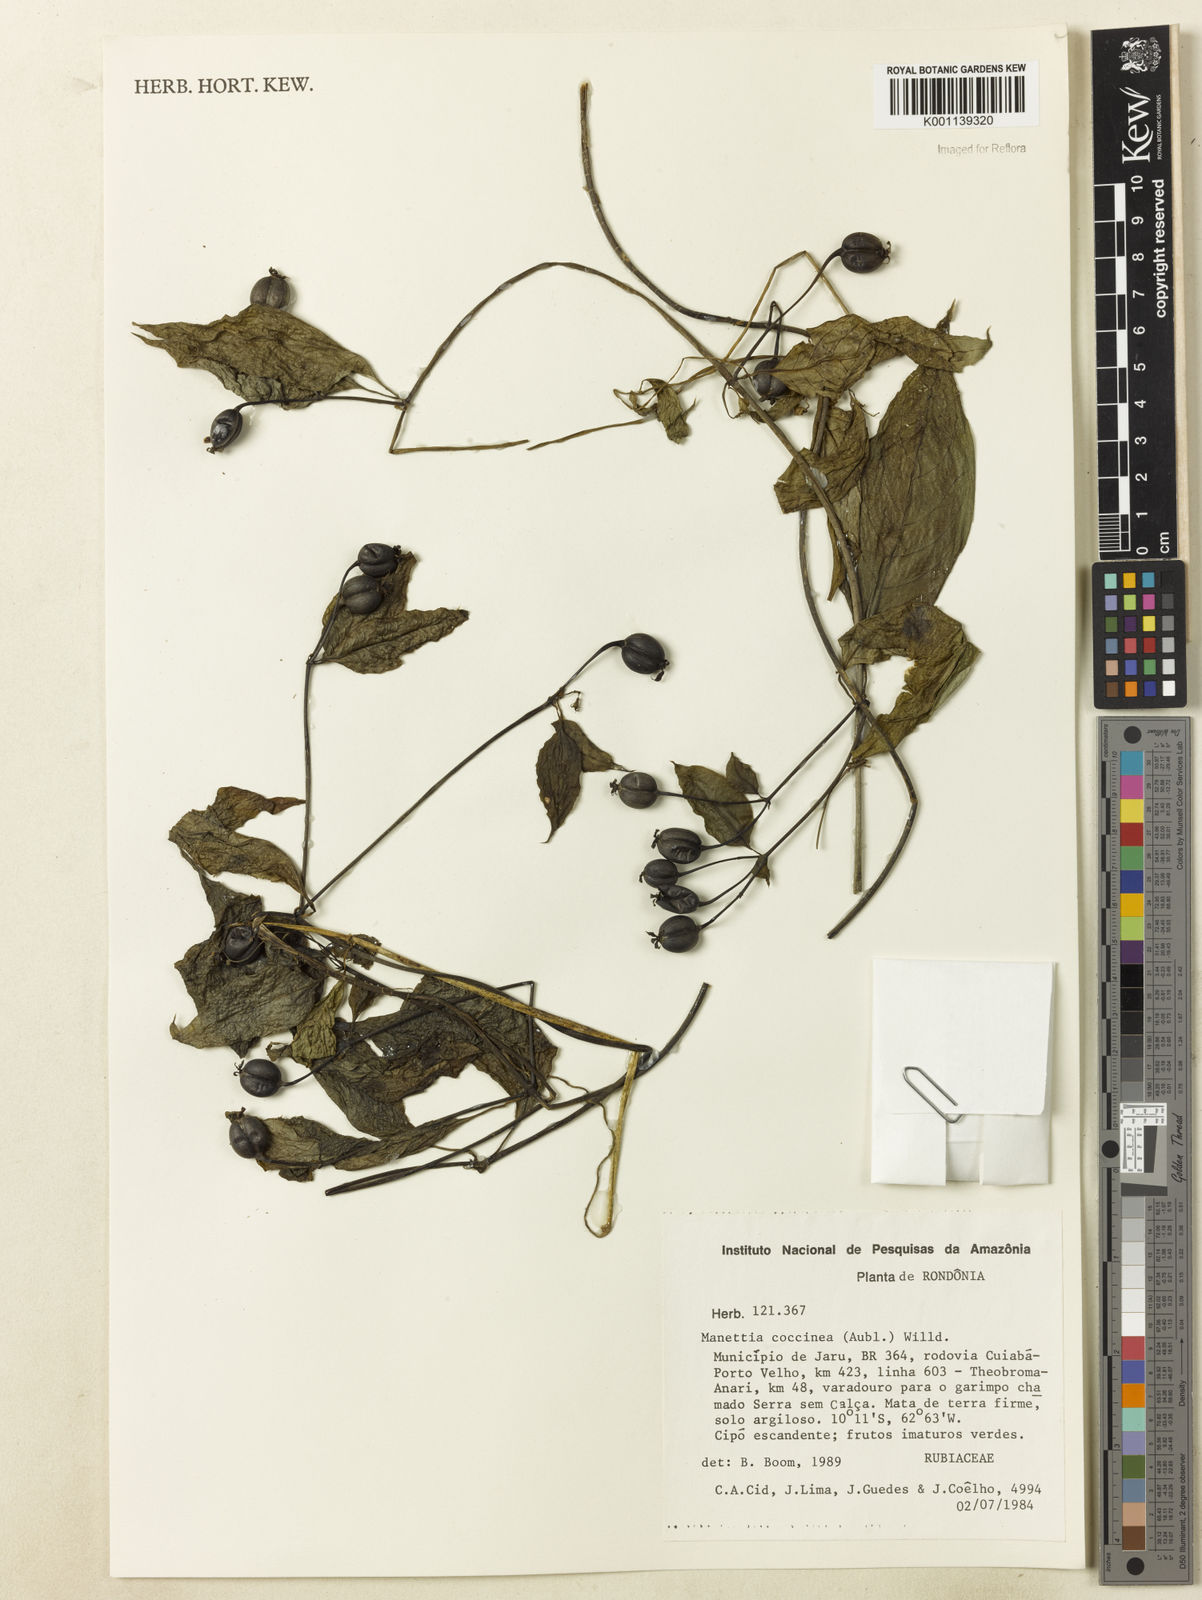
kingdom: Plantae
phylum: Tracheophyta
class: Magnoliopsida
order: Gentianales
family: Rubiaceae
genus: Manettia
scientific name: Manettia
